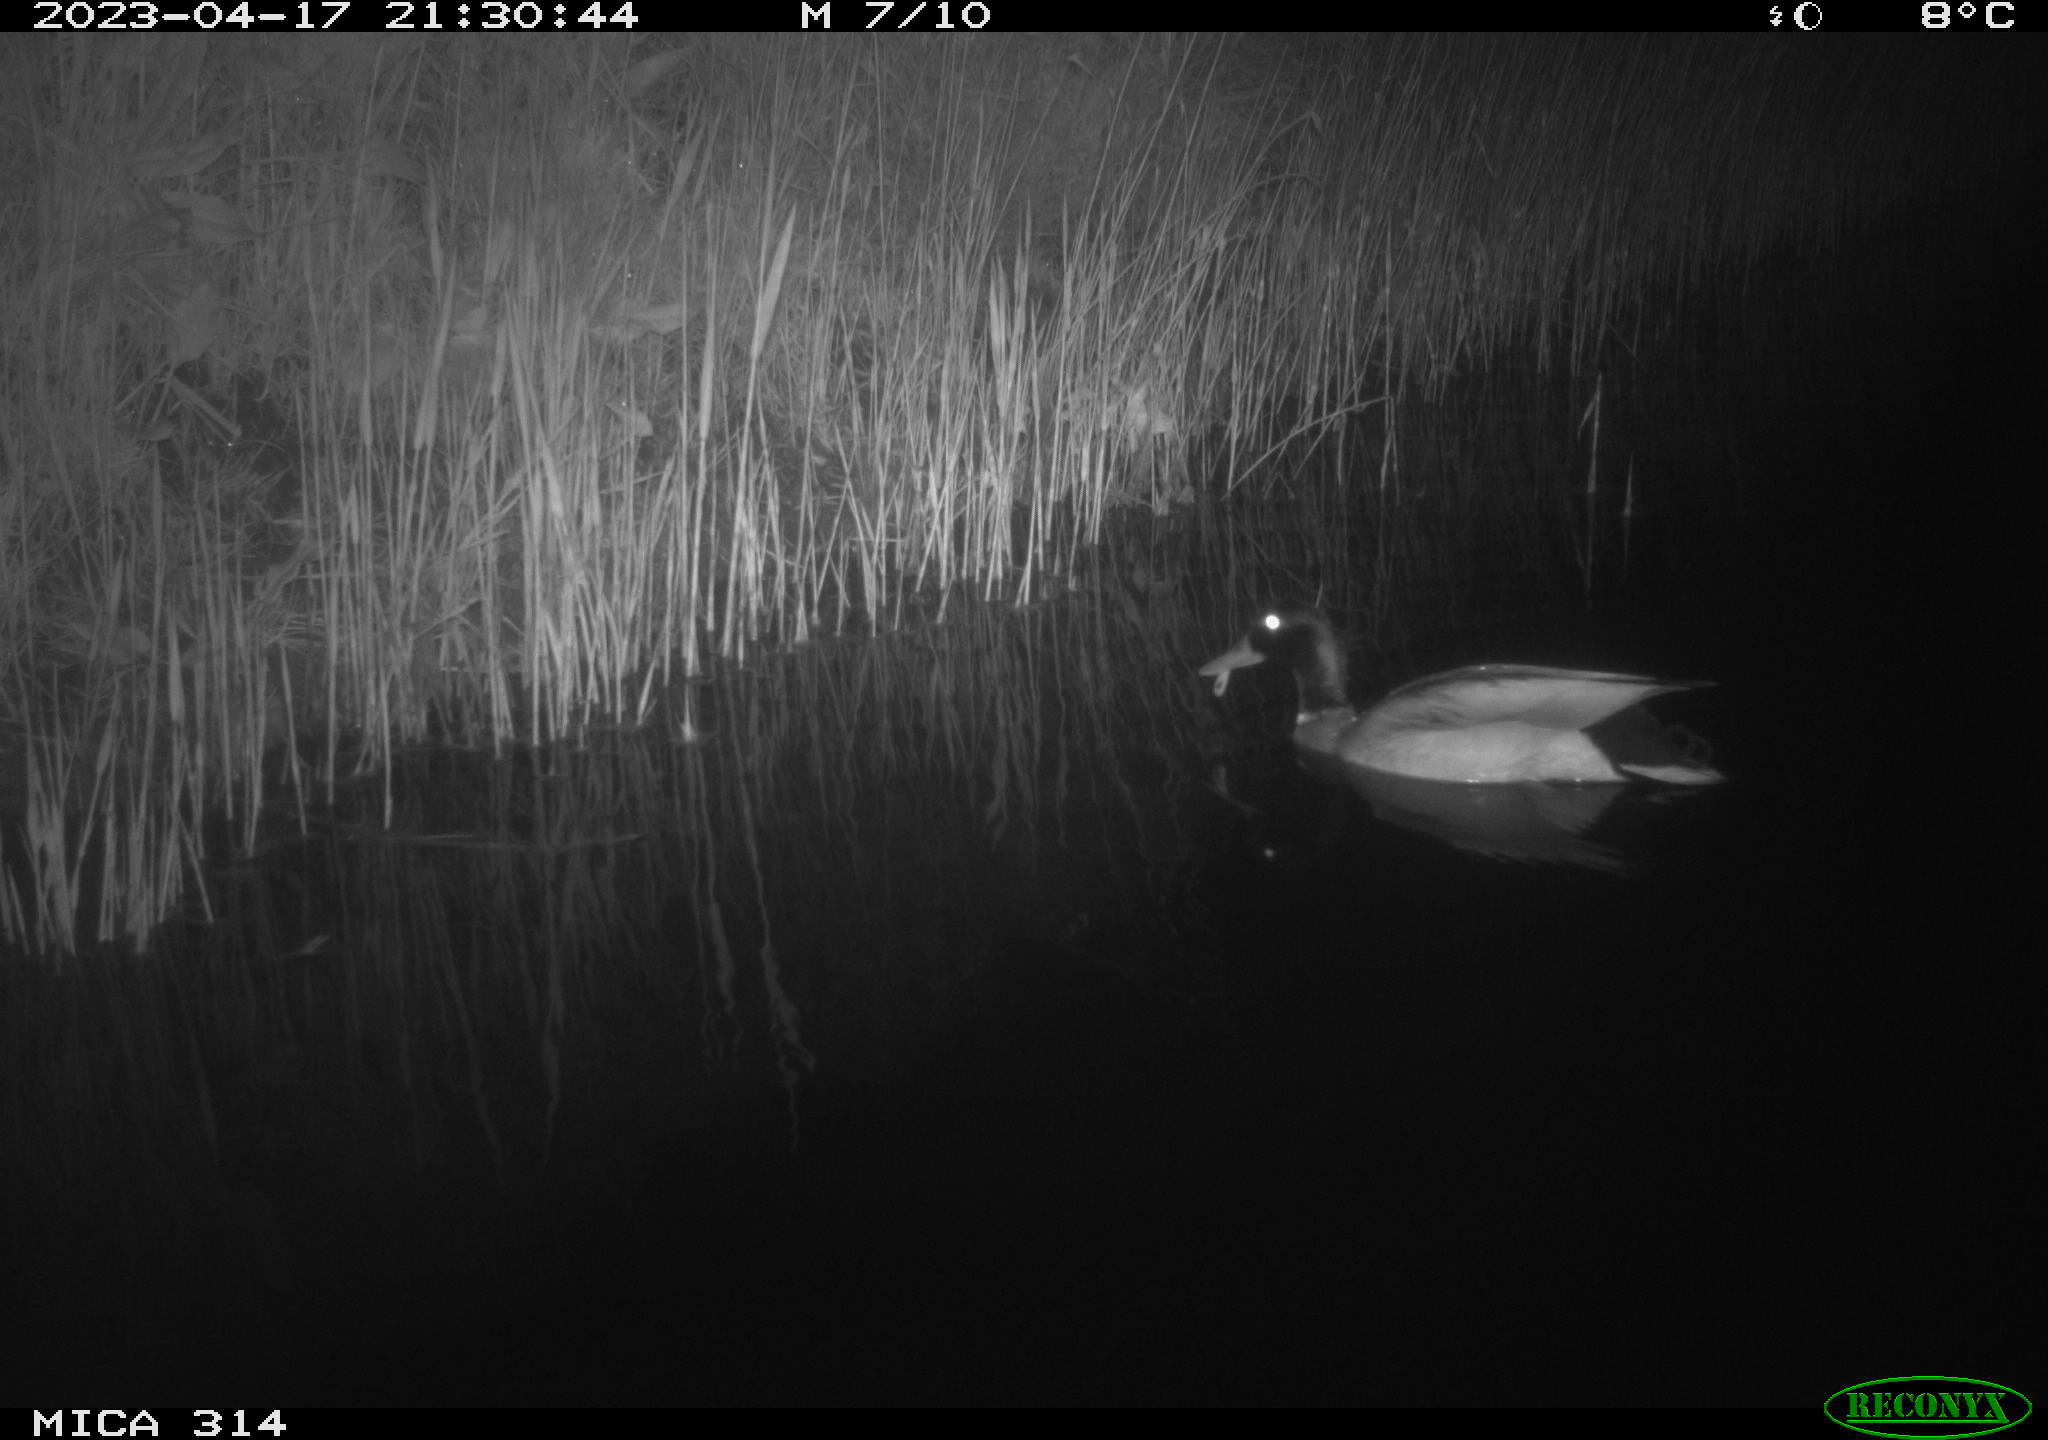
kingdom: Animalia
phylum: Chordata
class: Aves
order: Anseriformes
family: Anatidae
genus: Anas
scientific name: Anas
